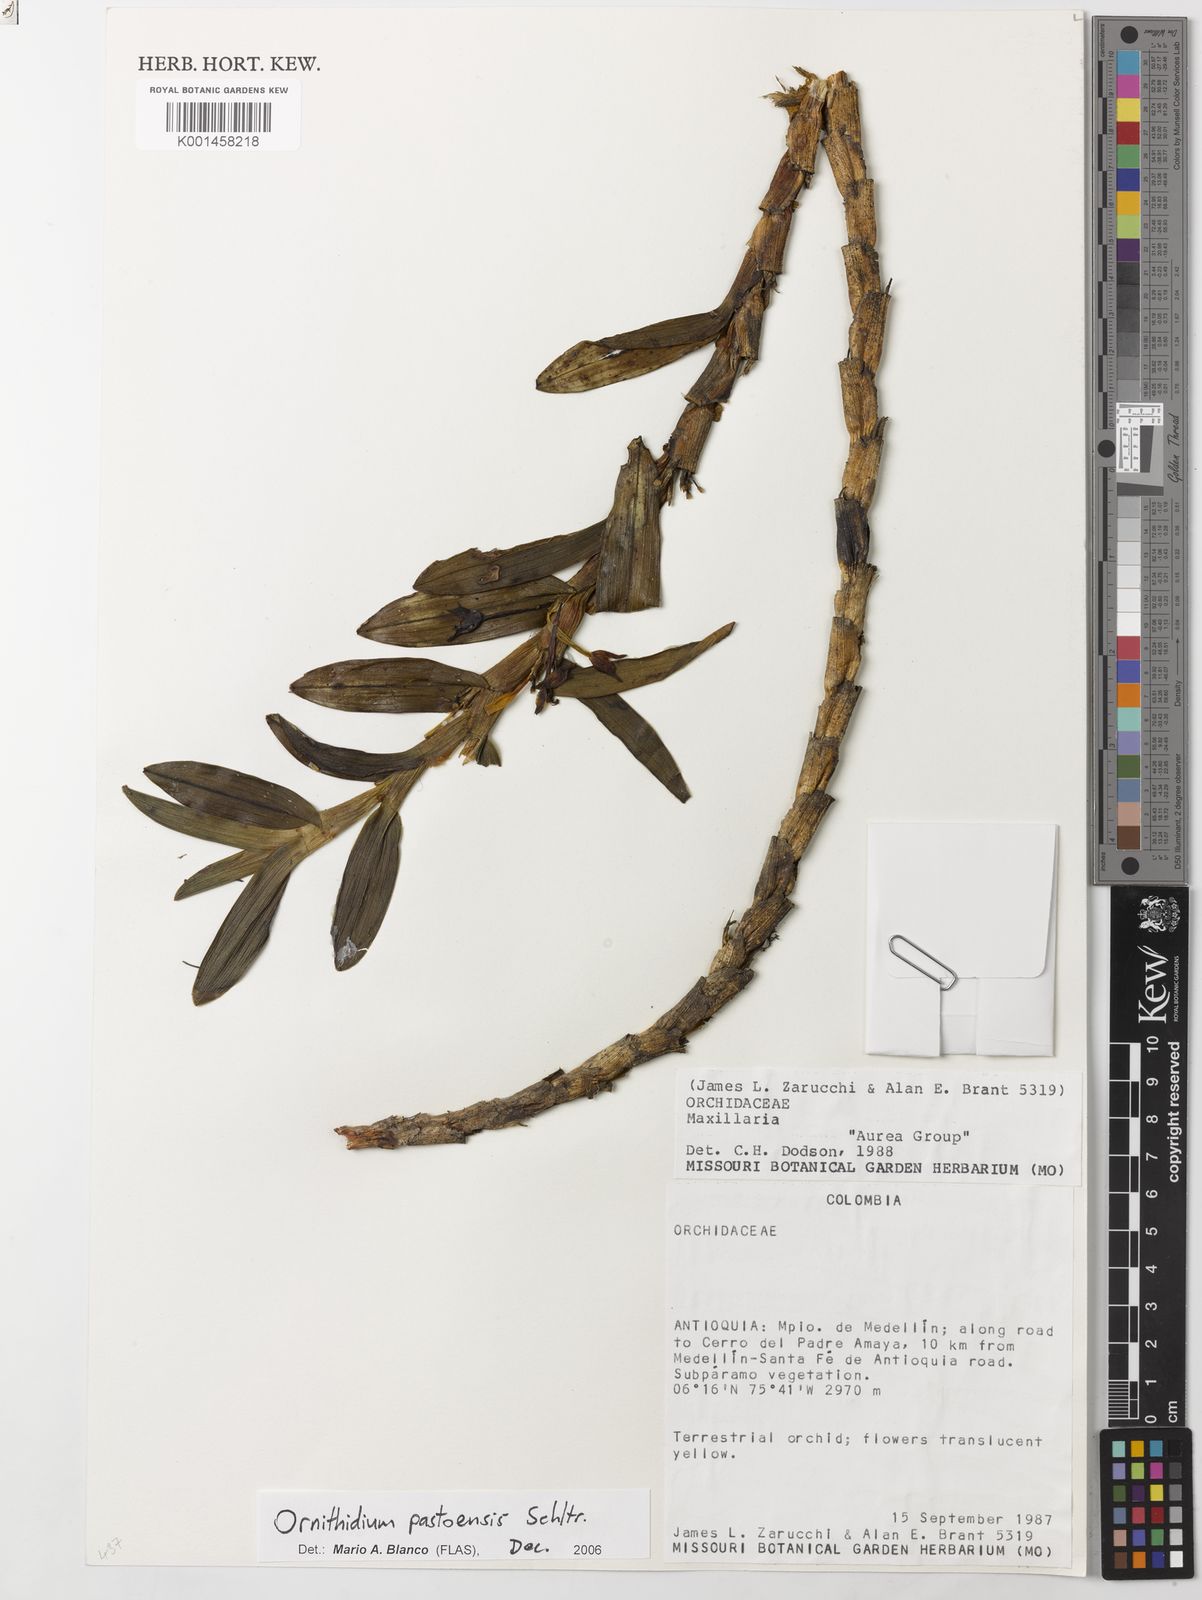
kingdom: Plantae
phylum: Tracheophyta
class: Liliopsida
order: Asparagales
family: Orchidaceae
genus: Maxillaria
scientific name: Maxillaria deuteropastensis
